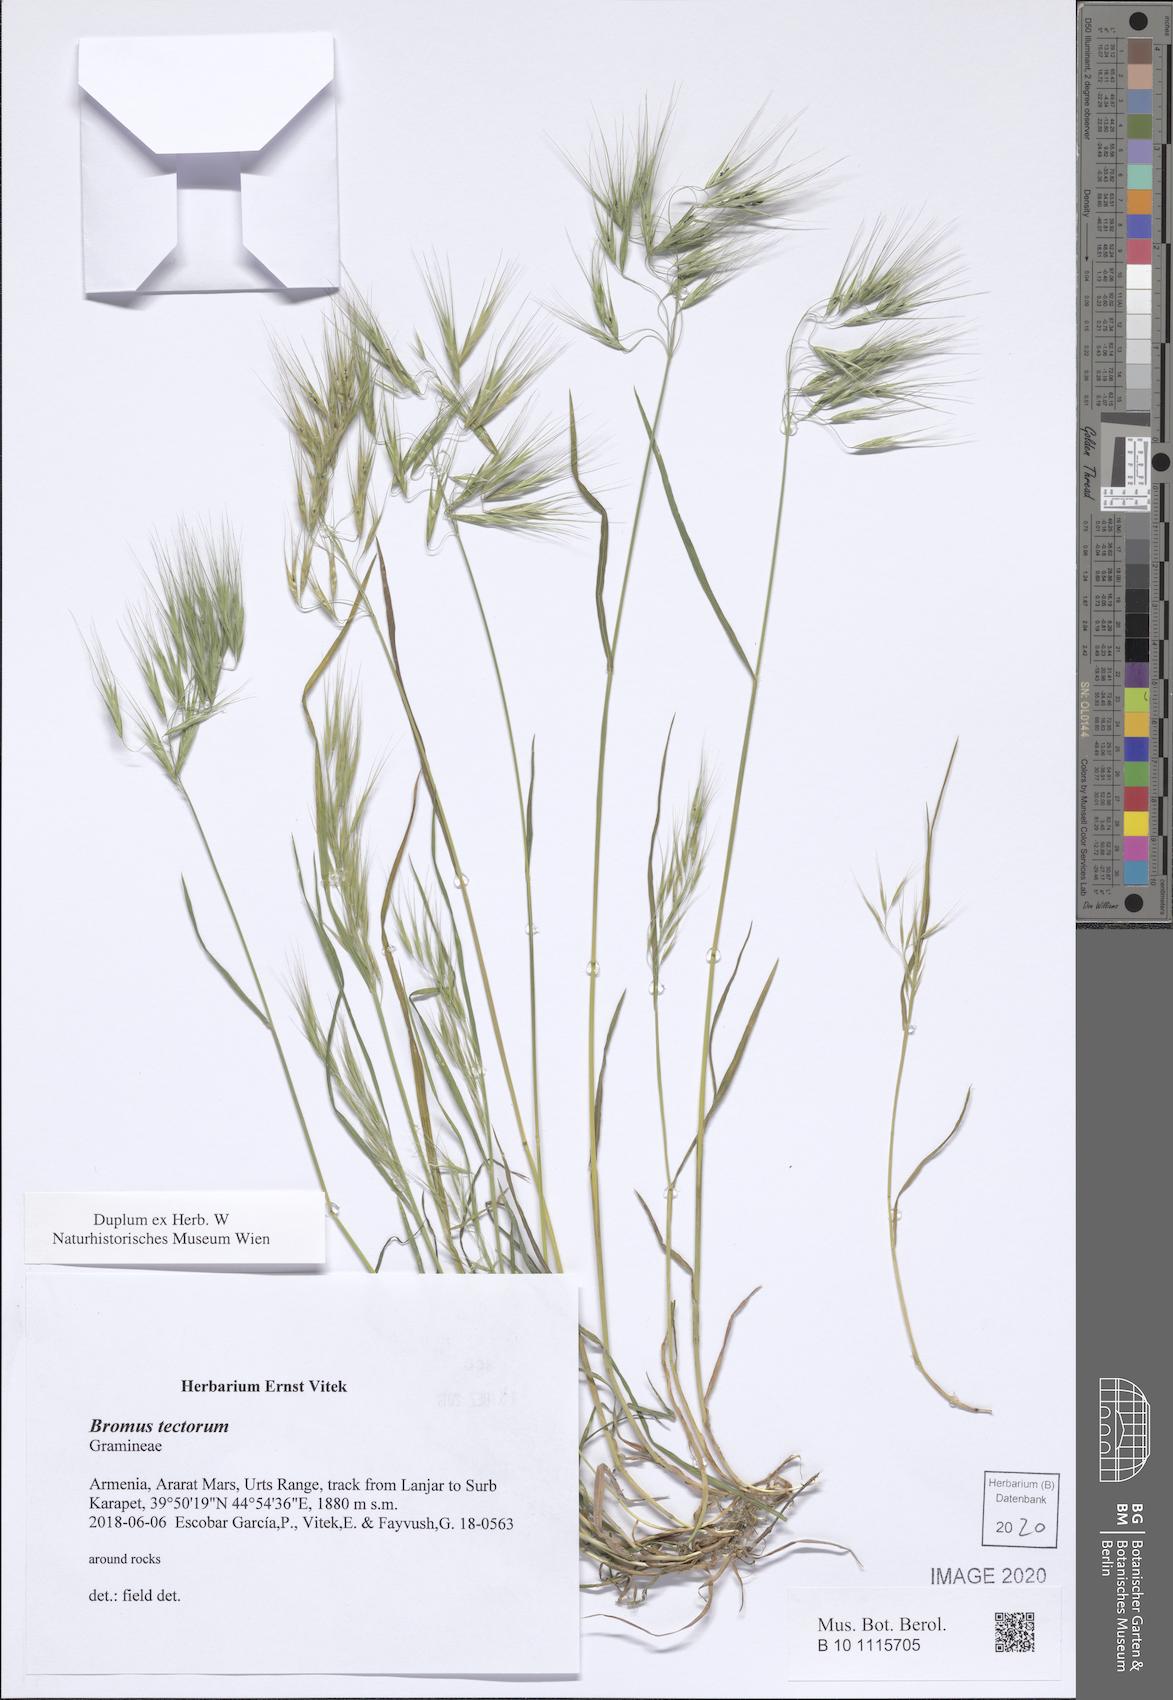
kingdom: Plantae
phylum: Tracheophyta
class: Liliopsida
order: Poales
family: Poaceae
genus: Bromus
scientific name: Bromus tectorum
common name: Cheatgrass
